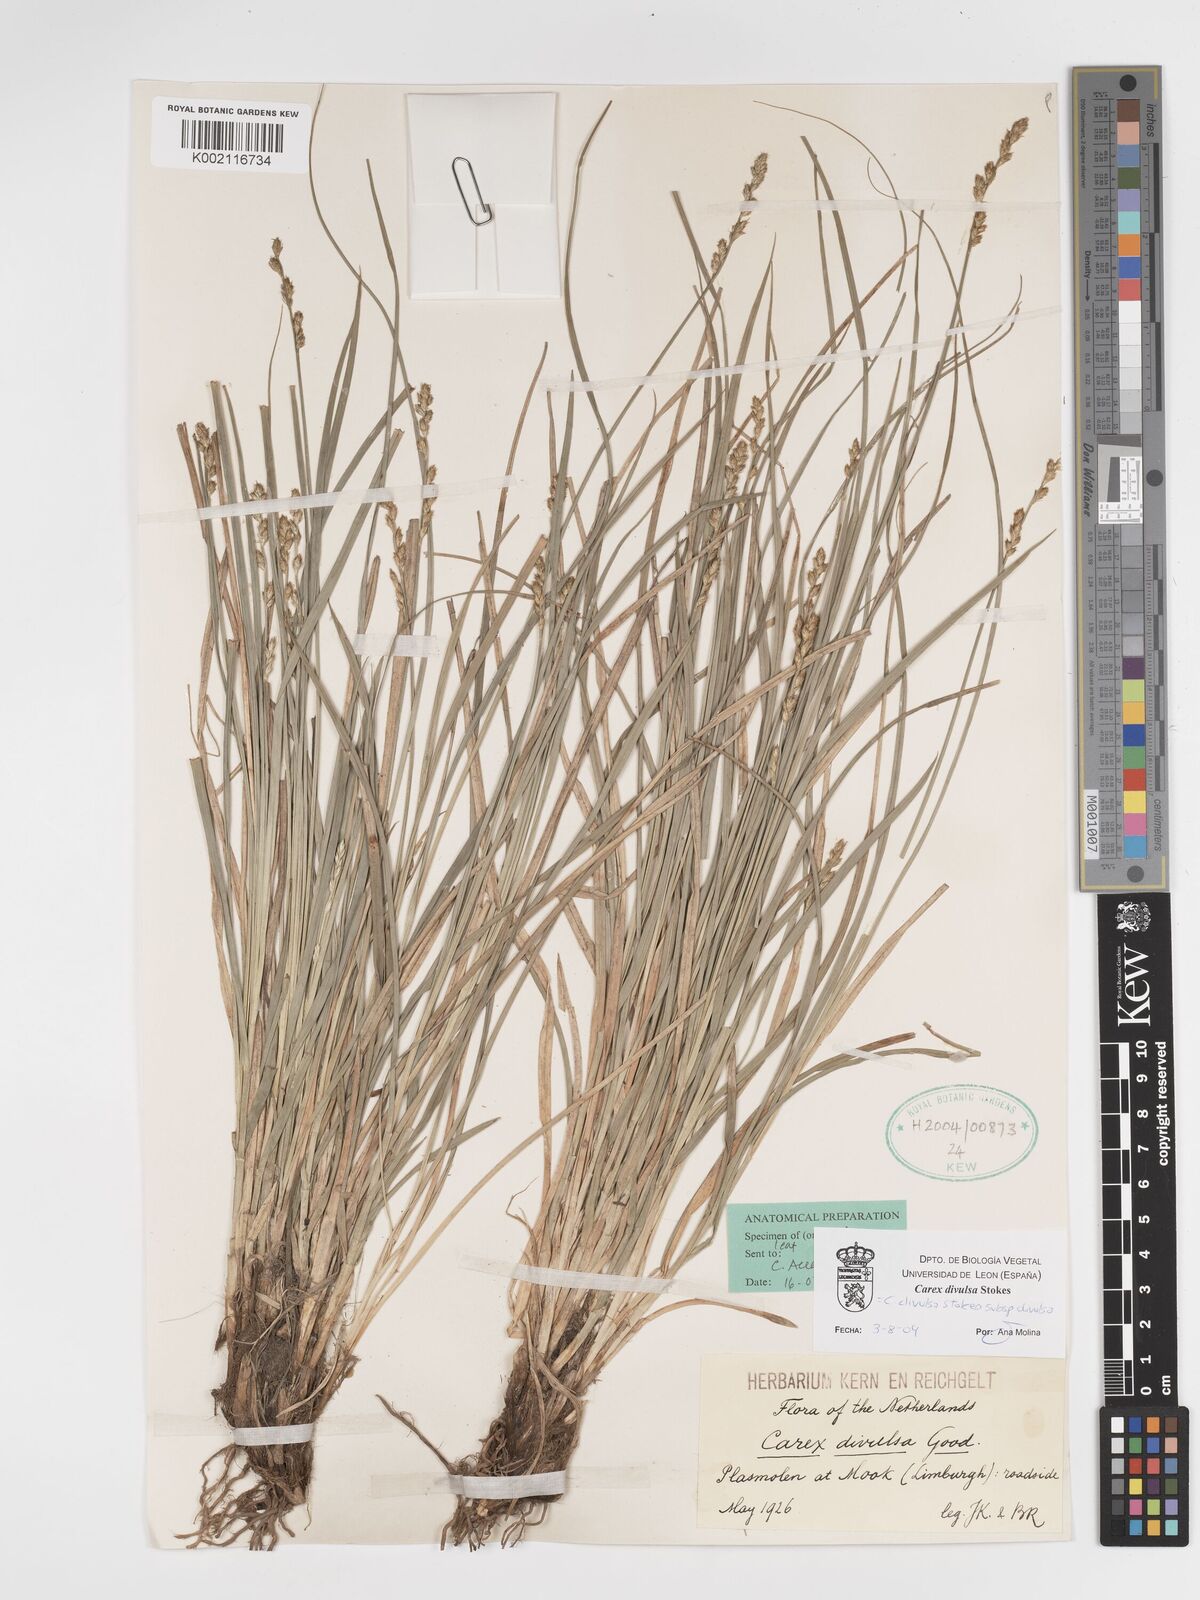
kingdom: Plantae
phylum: Tracheophyta
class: Liliopsida
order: Poales
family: Cyperaceae
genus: Carex
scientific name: Carex divulsa
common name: Grassland sedge
